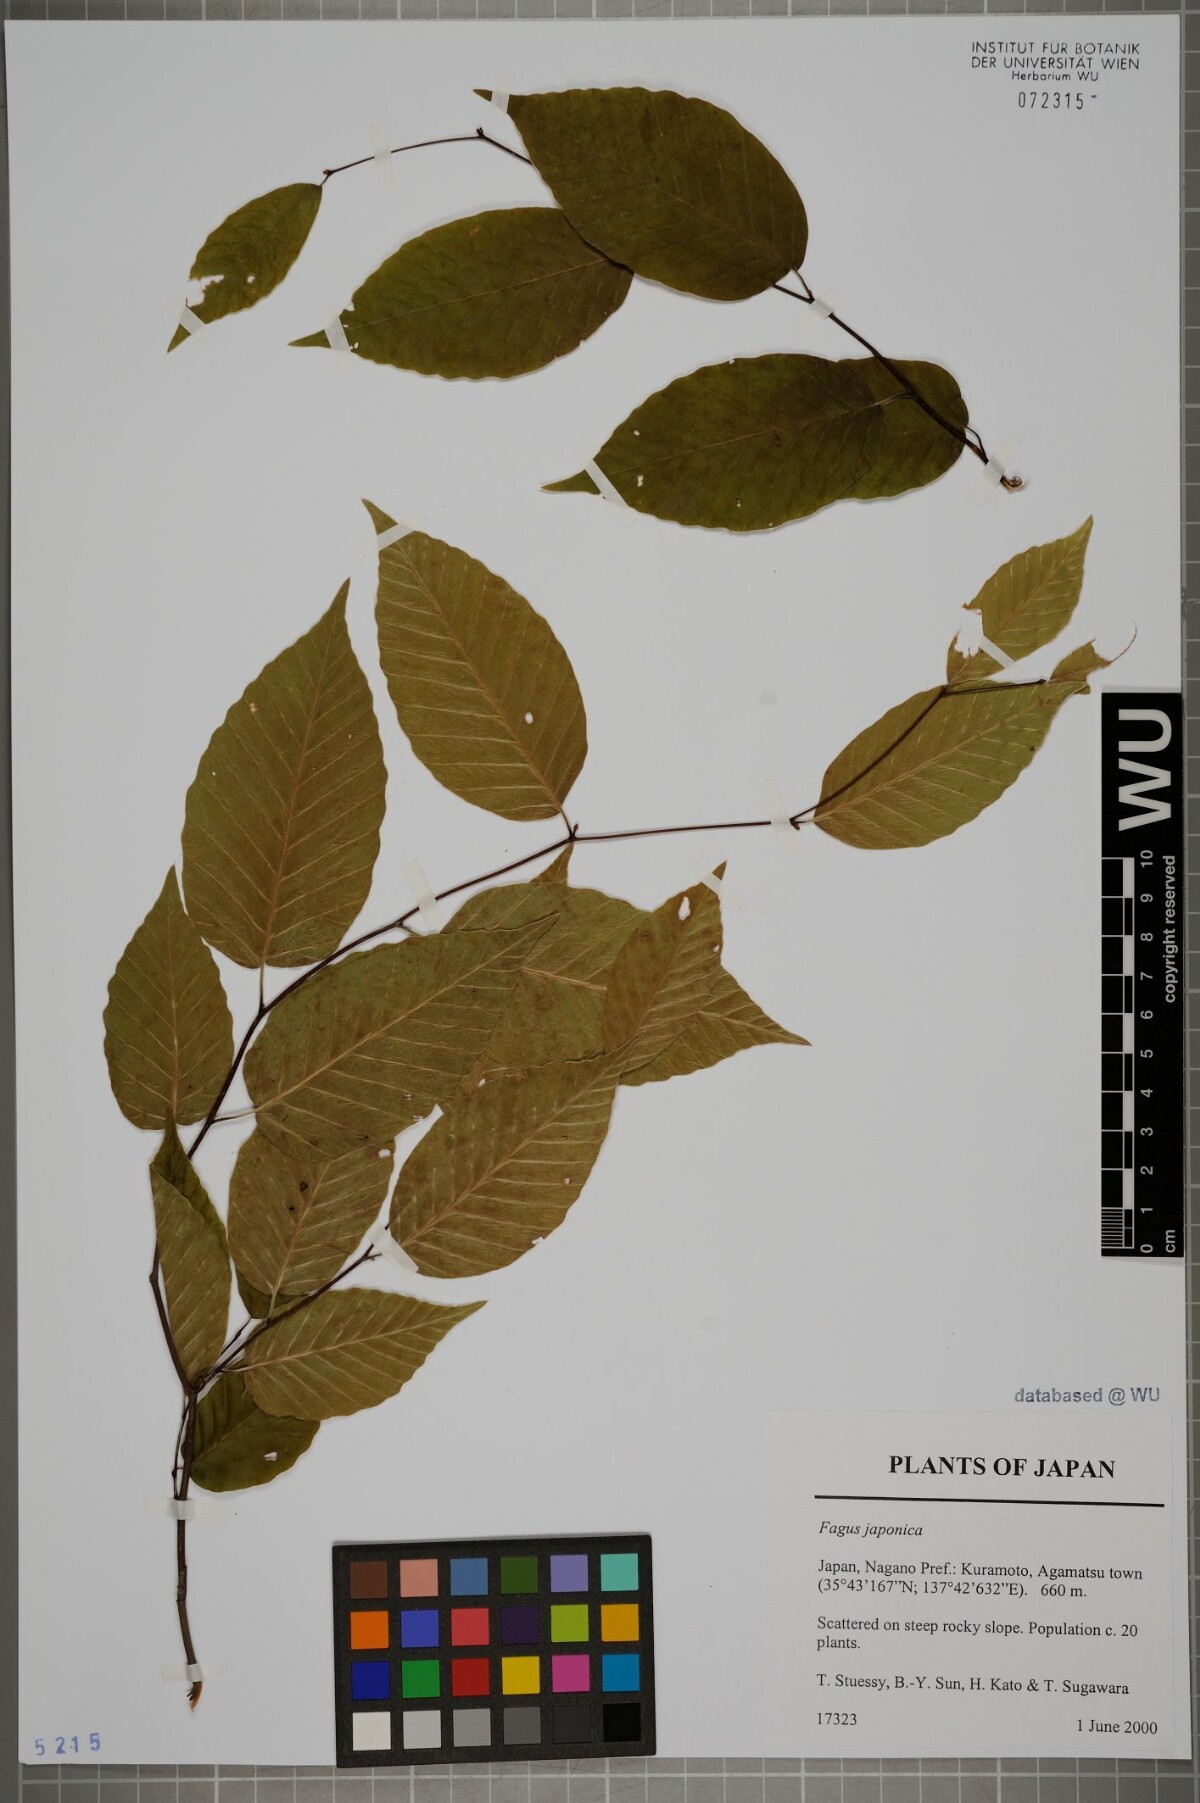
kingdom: Plantae
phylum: Tracheophyta
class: Magnoliopsida
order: Fagales
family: Fagaceae
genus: Fagus
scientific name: Fagus japonica
